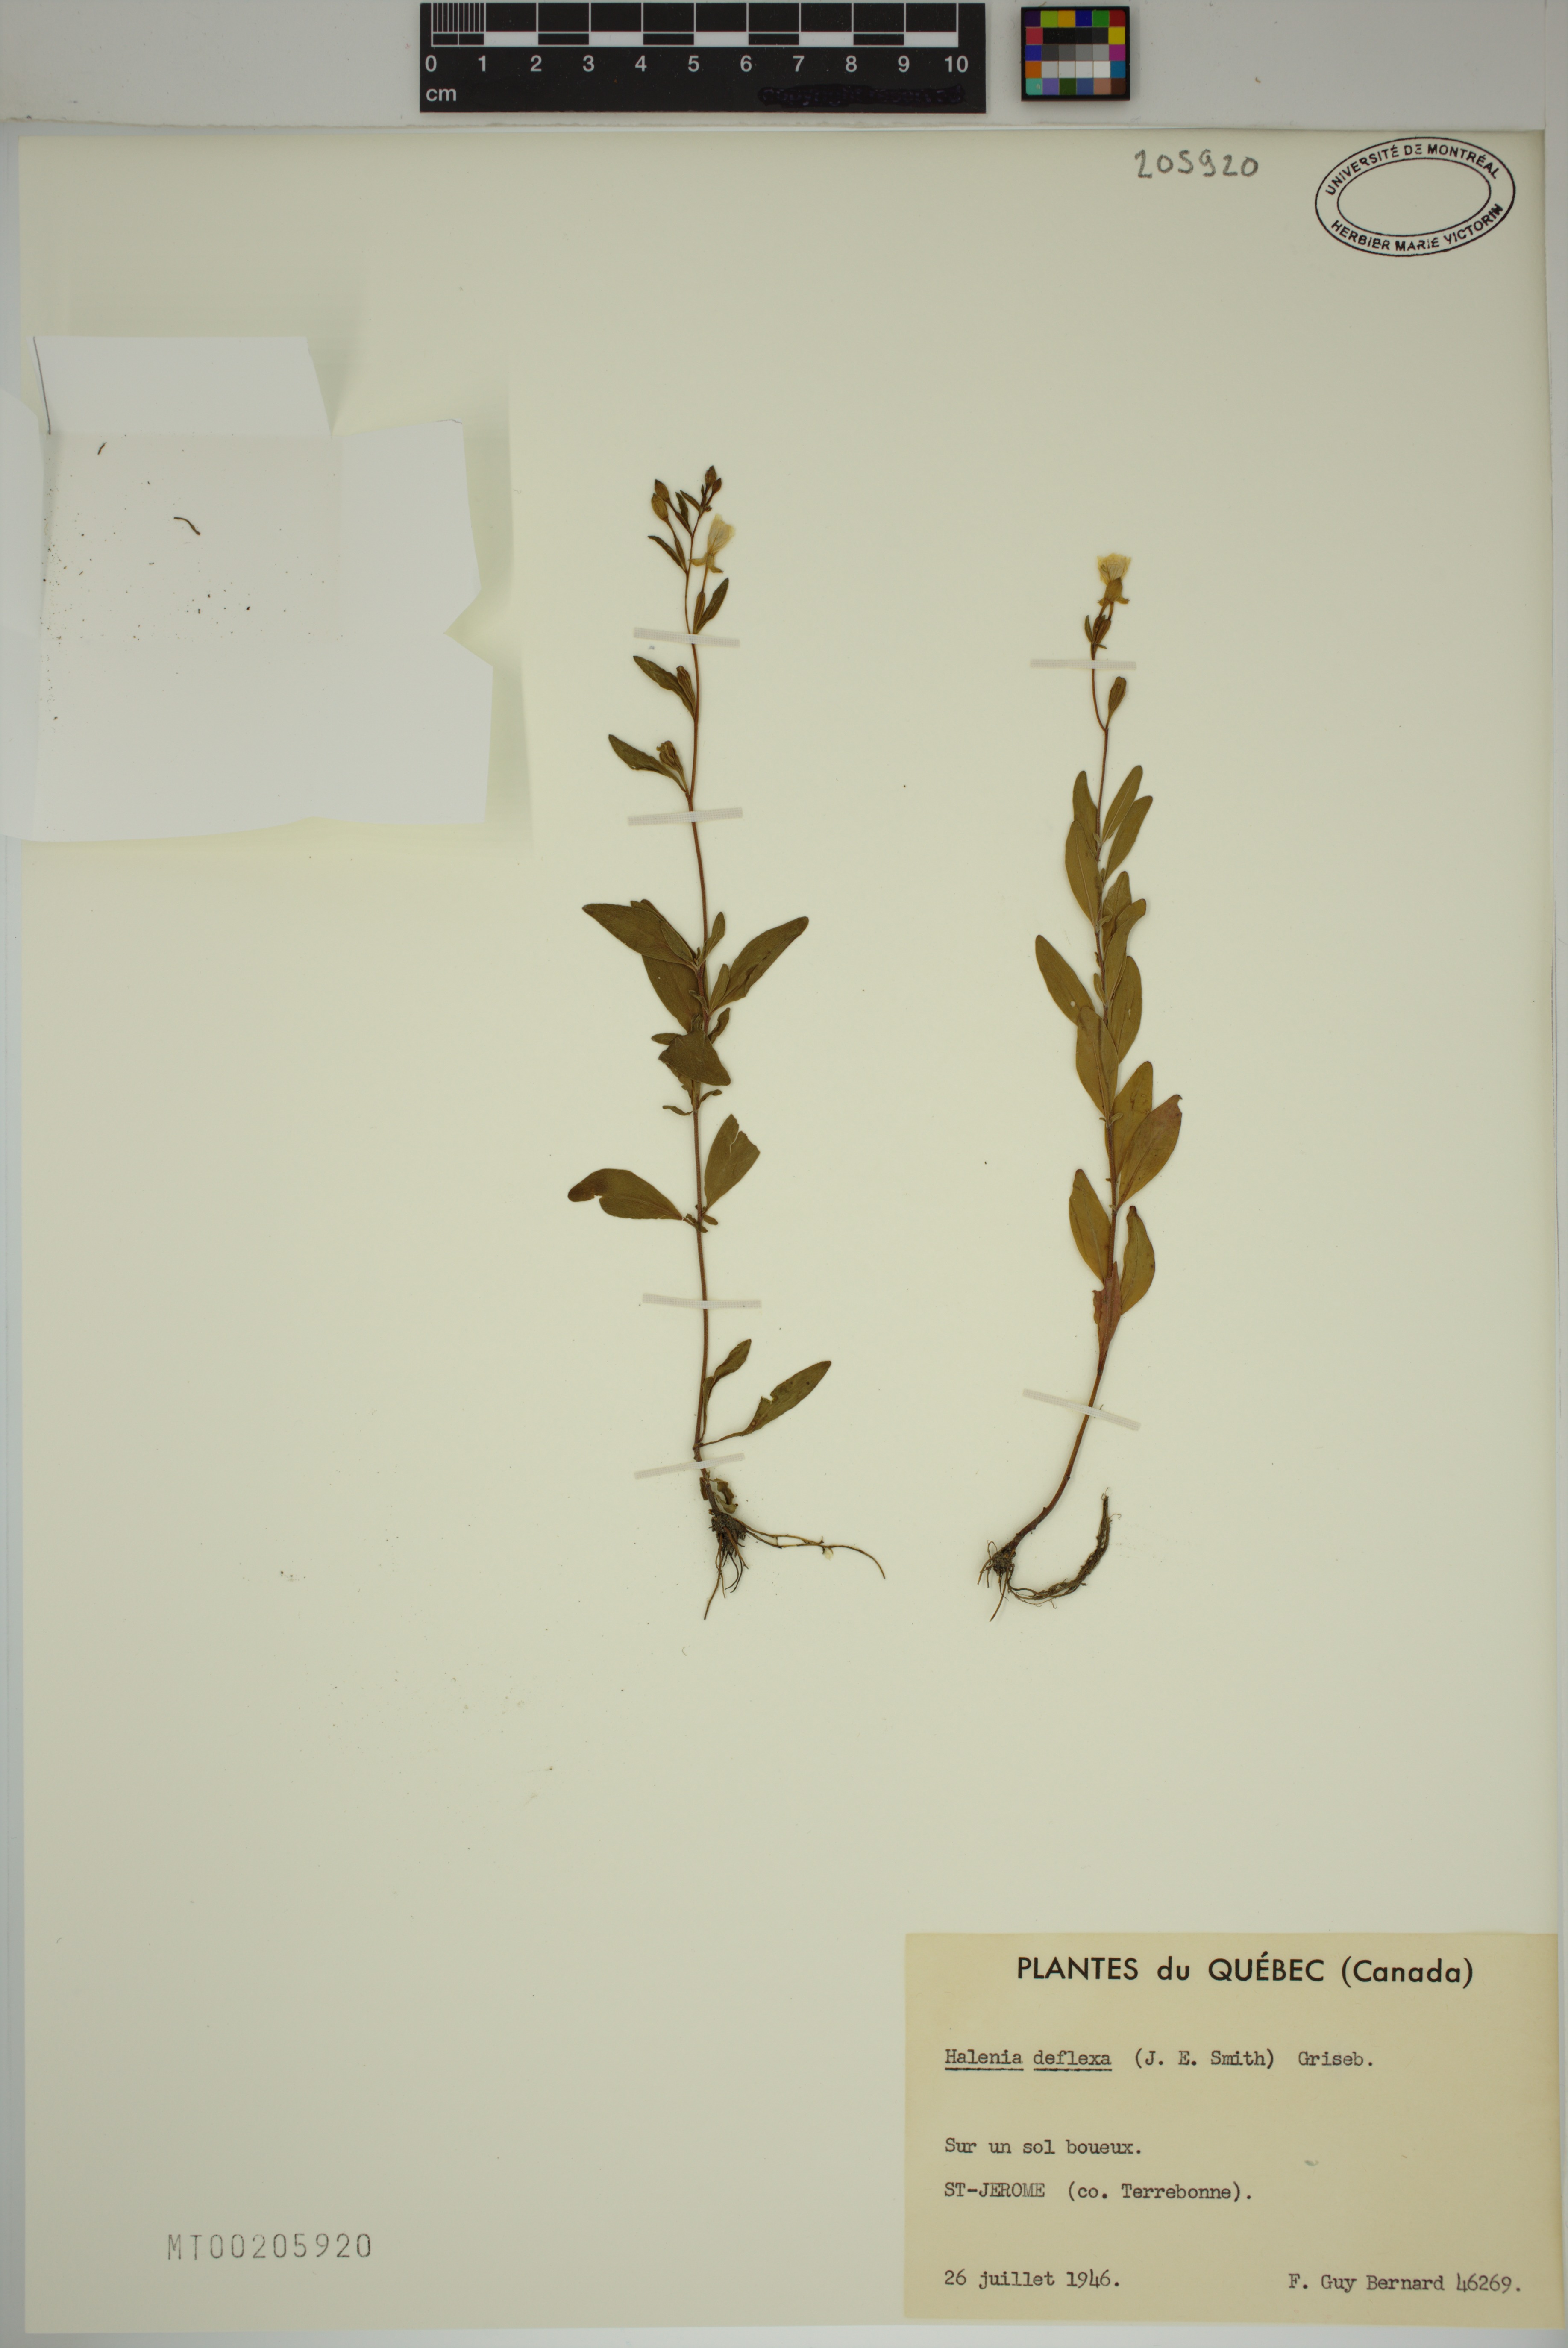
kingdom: Plantae
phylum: Tracheophyta
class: Magnoliopsida
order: Gentianales
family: Gentianaceae
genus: Halenia
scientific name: Halenia deflexa
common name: American spurred gentian
